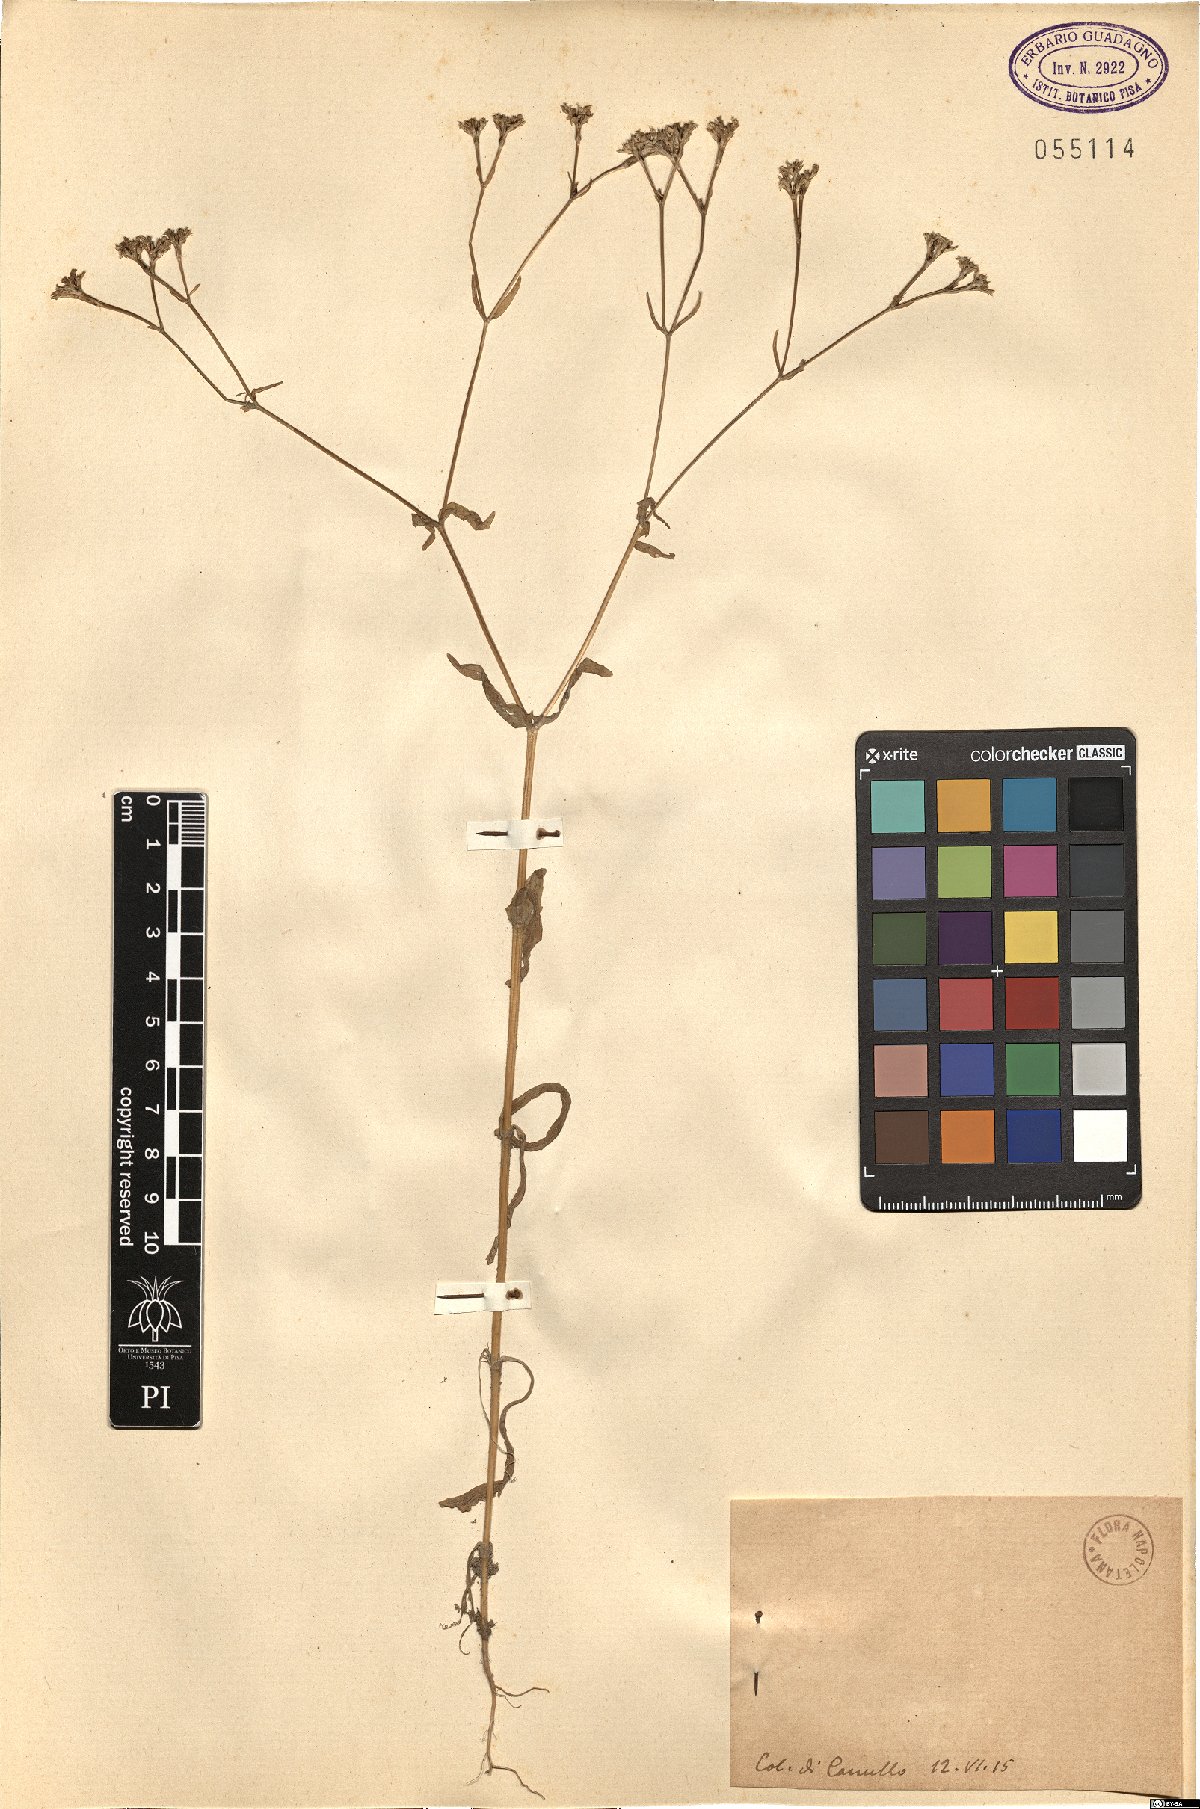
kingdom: Plantae
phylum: Tracheophyta
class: Magnoliopsida
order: Dipsacales
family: Caprifoliaceae
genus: Valerianella
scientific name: Valerianella
